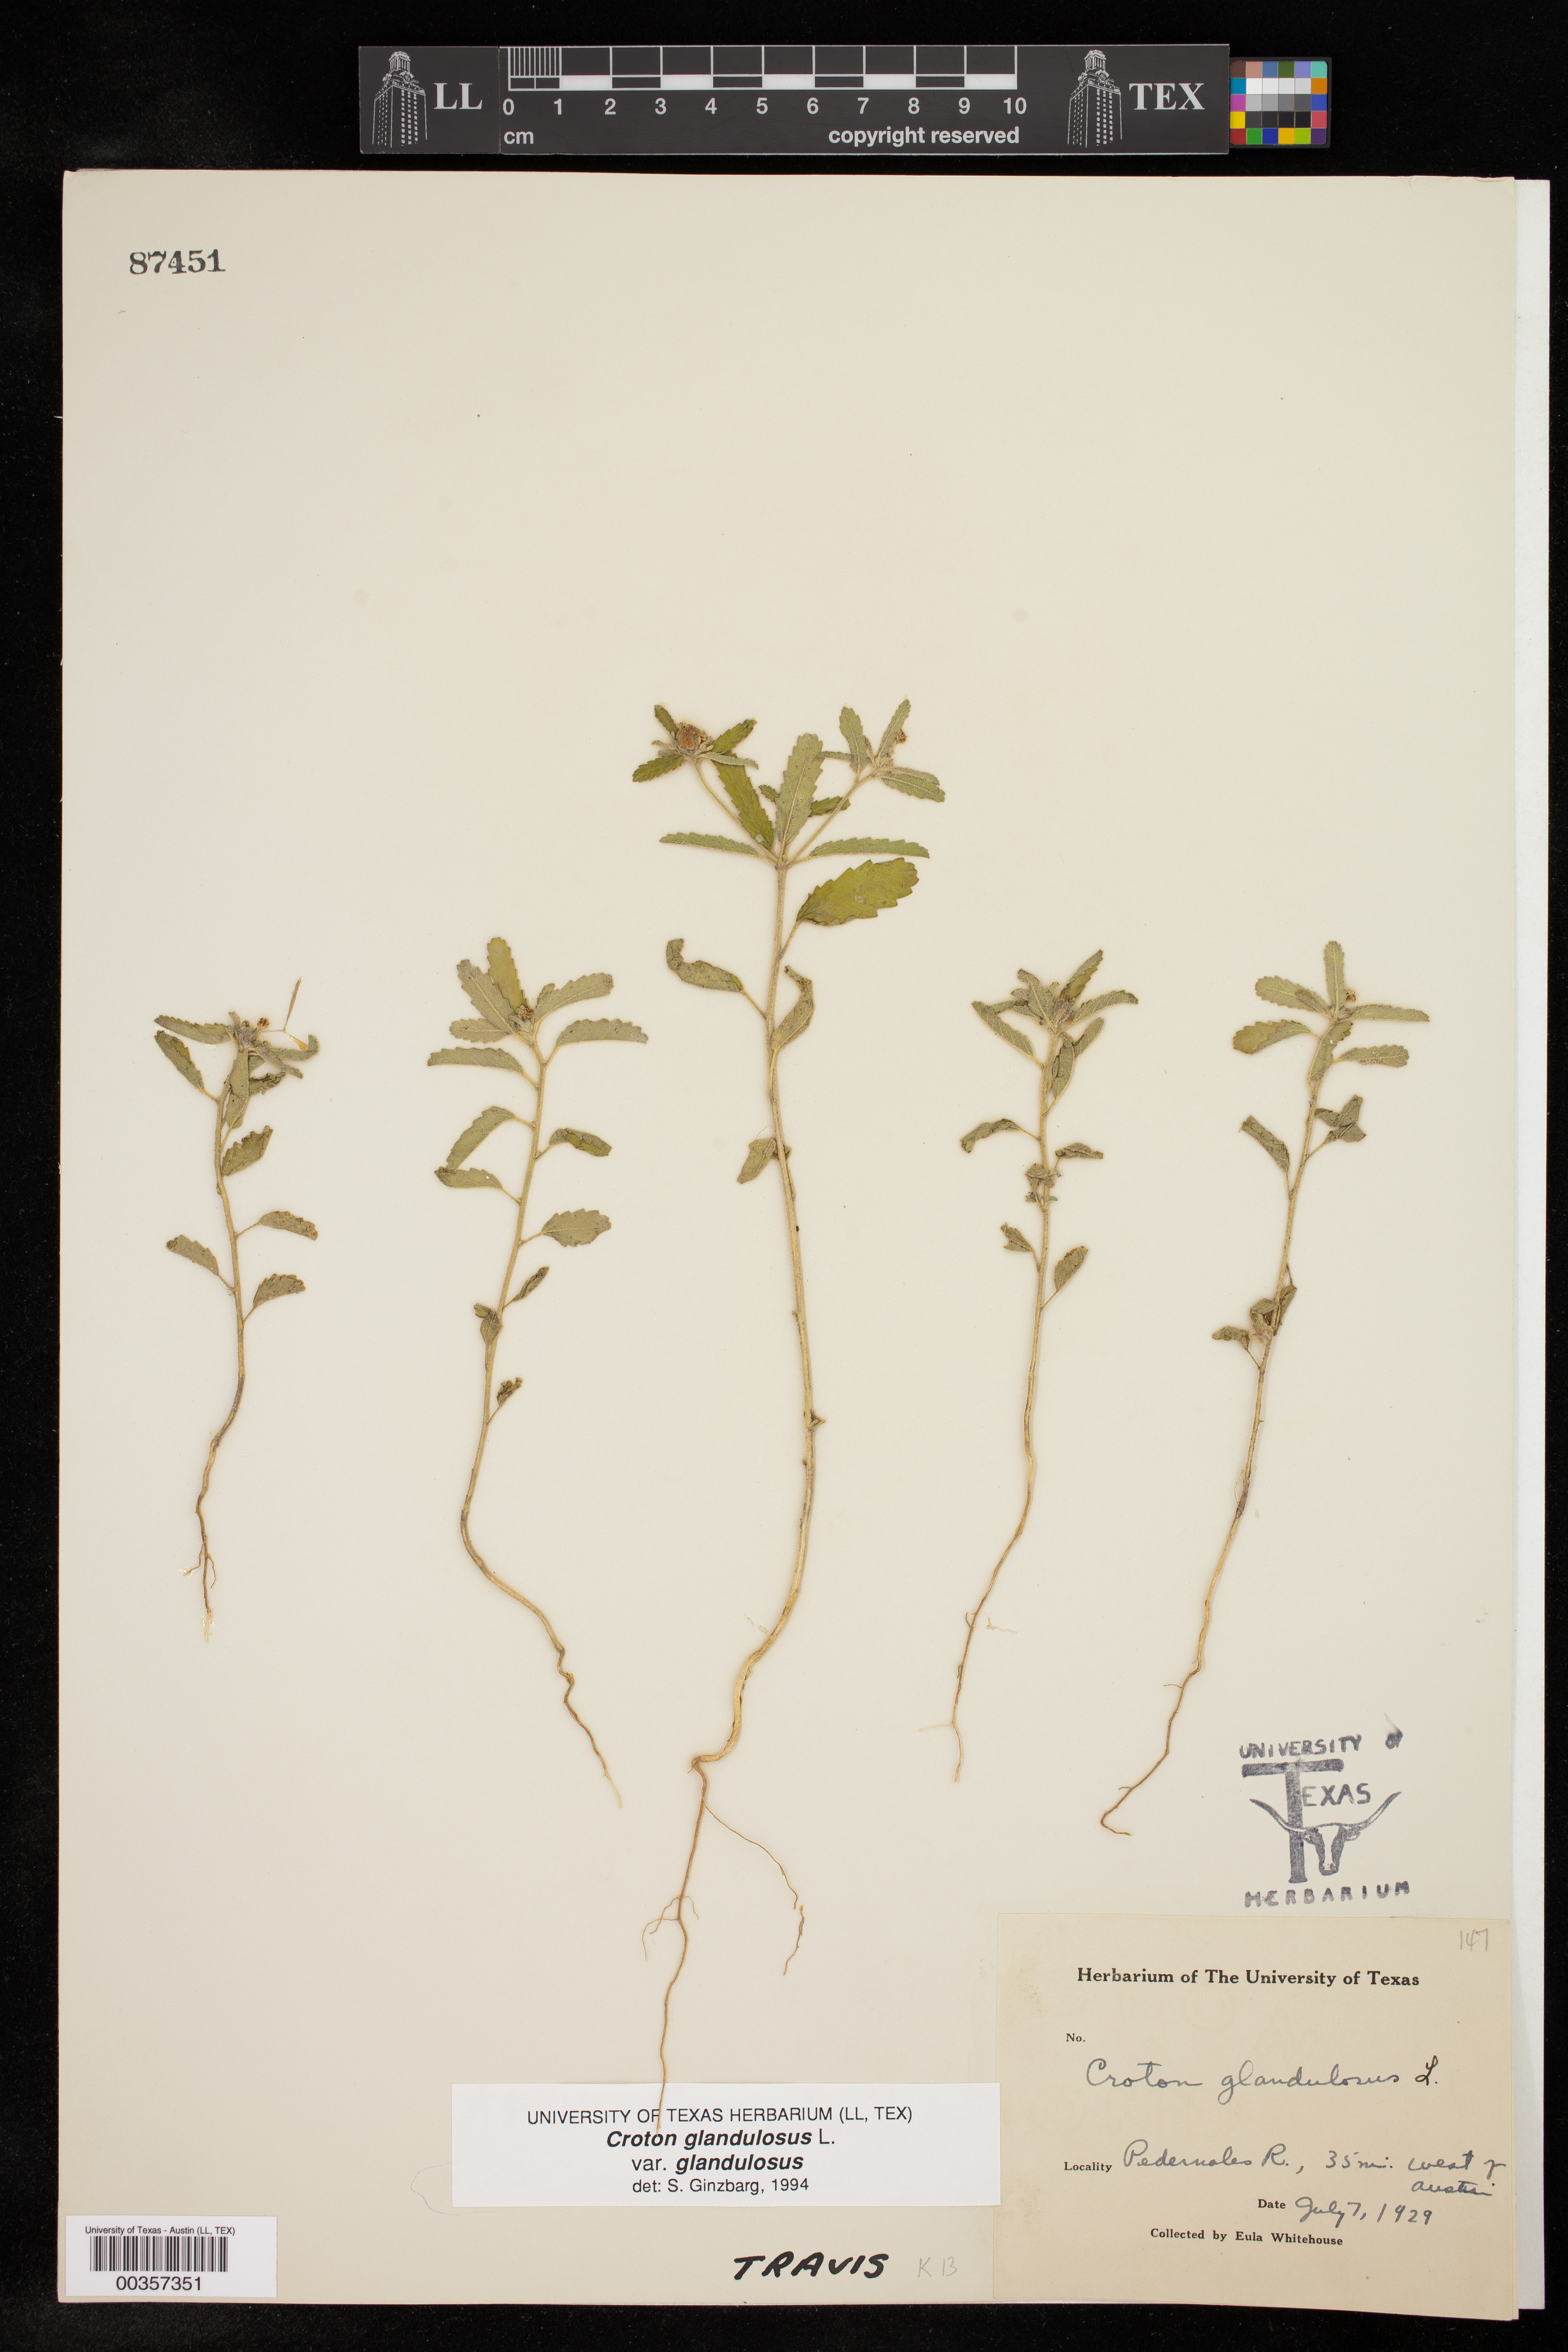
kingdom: Plantae
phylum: Tracheophyta
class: Magnoliopsida
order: Malpighiales
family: Euphorbiaceae
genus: Croton
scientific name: Croton glandulosus
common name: Tropic croton
